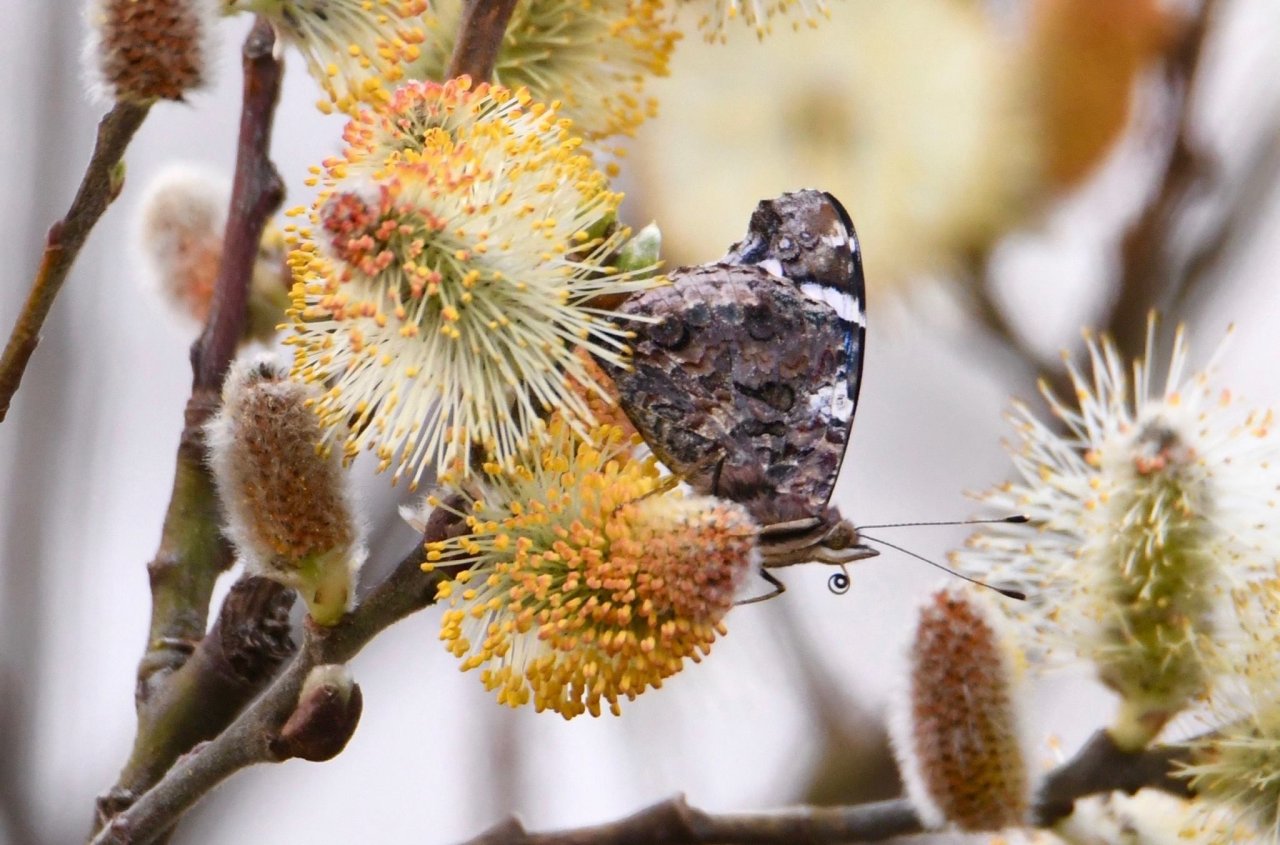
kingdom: Animalia
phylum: Arthropoda
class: Insecta
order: Lepidoptera
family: Nymphalidae
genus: Vanessa
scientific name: Vanessa atalanta
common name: Red Admiral
